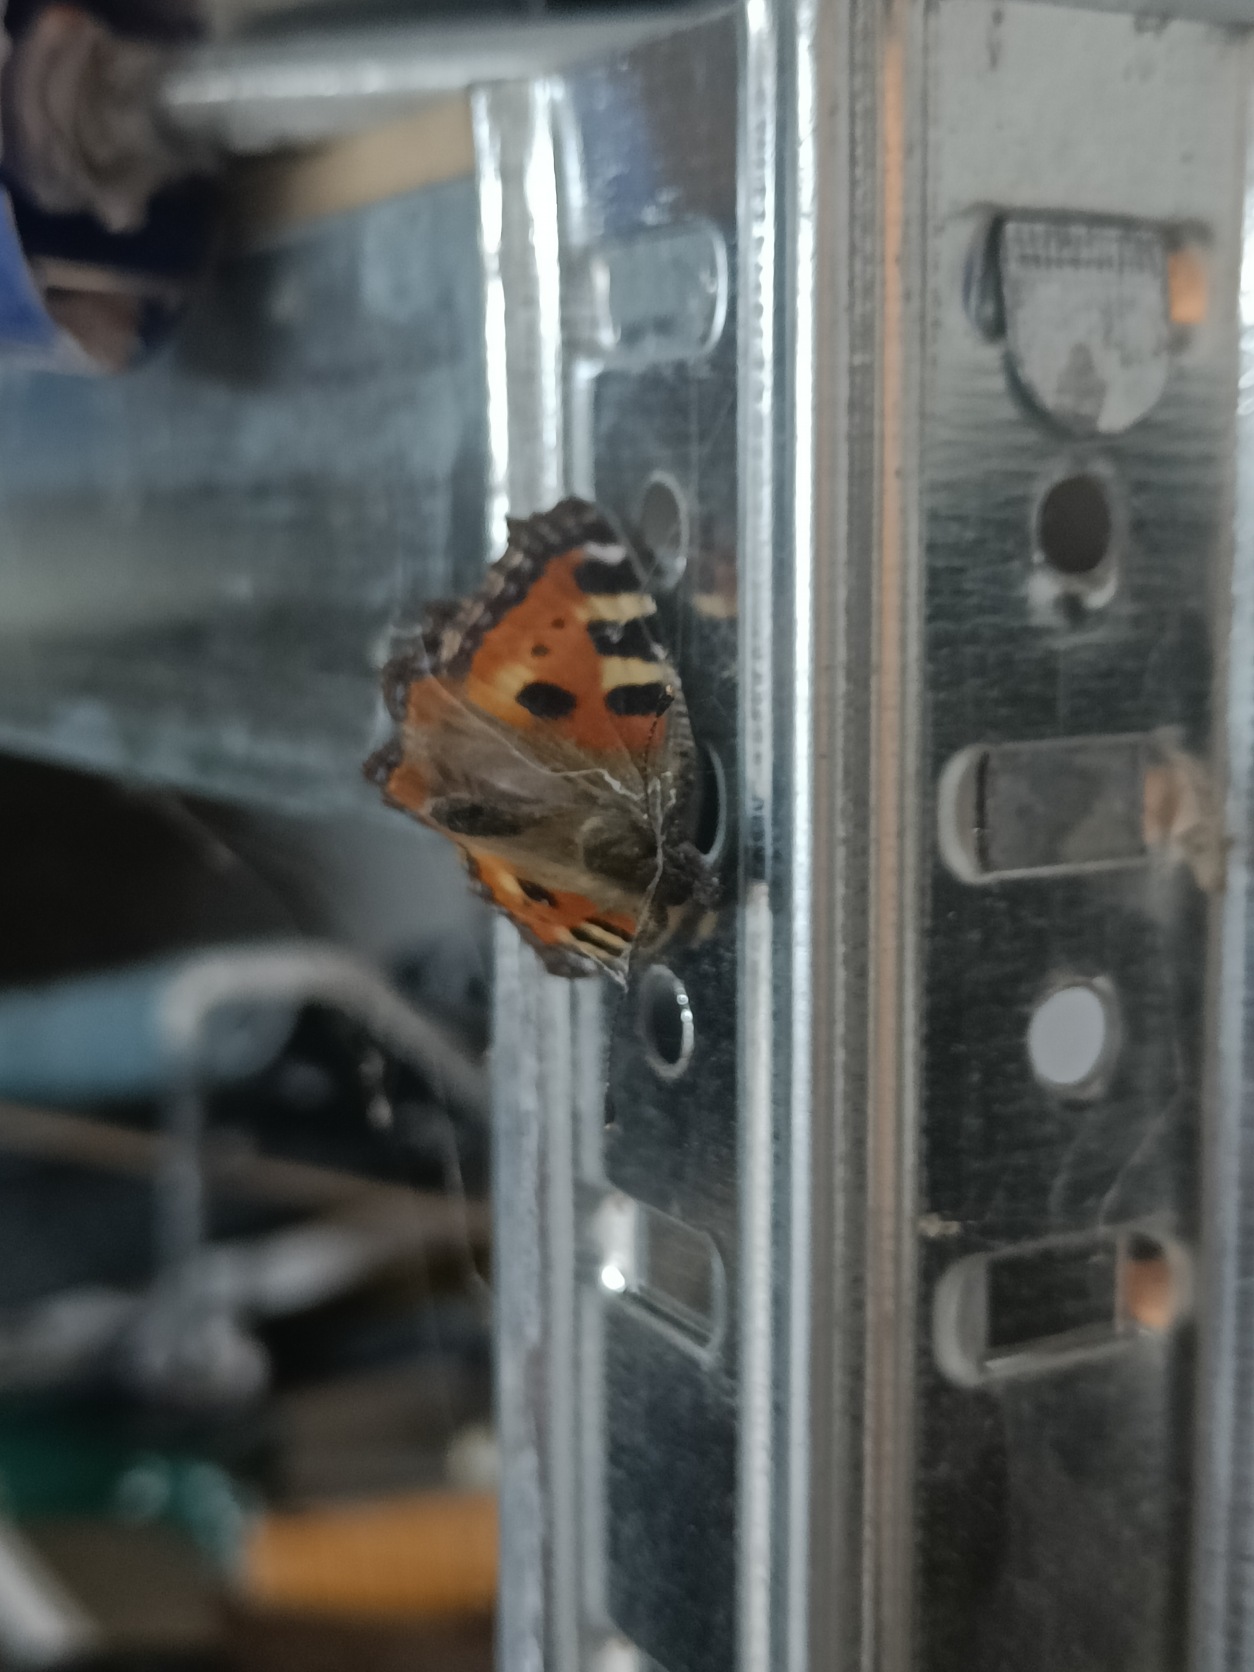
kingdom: Animalia
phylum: Arthropoda
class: Insecta
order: Lepidoptera
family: Nymphalidae
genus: Aglais
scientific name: Aglais urticae
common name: Nældens takvinge
